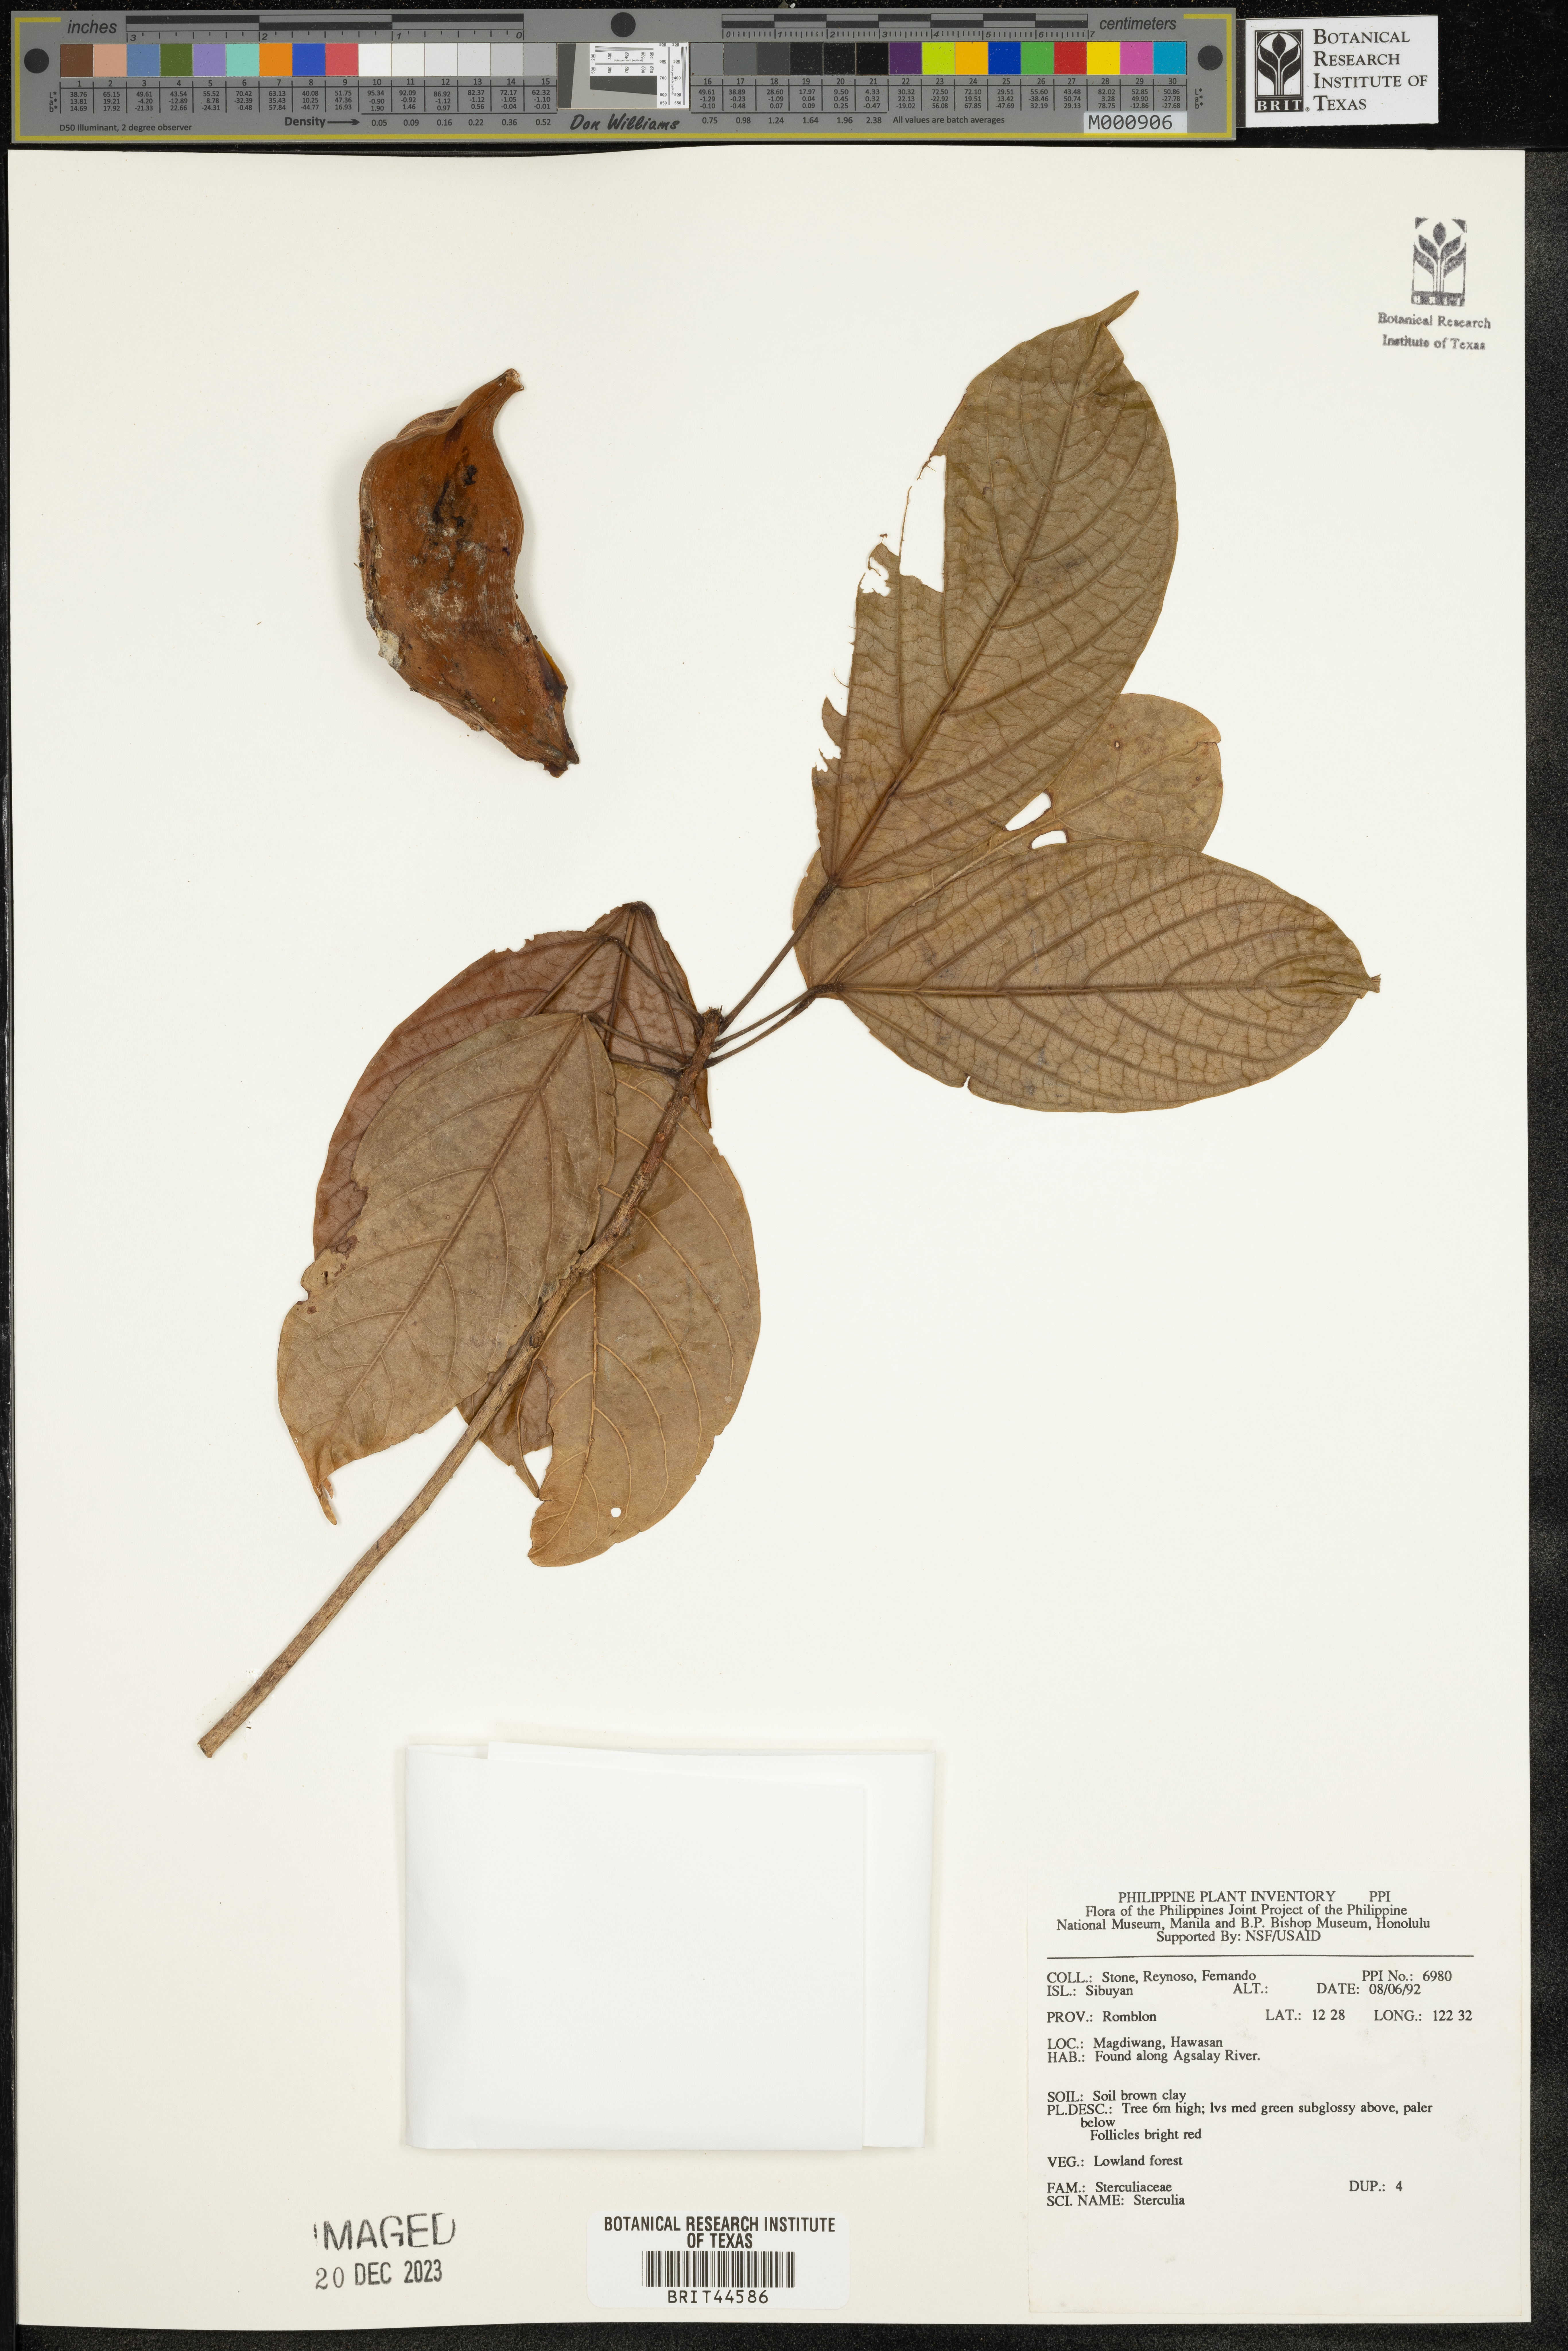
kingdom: Plantae
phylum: Tracheophyta
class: Magnoliopsida
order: Malvales
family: Malvaceae
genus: Sterculia
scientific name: Sterculia
